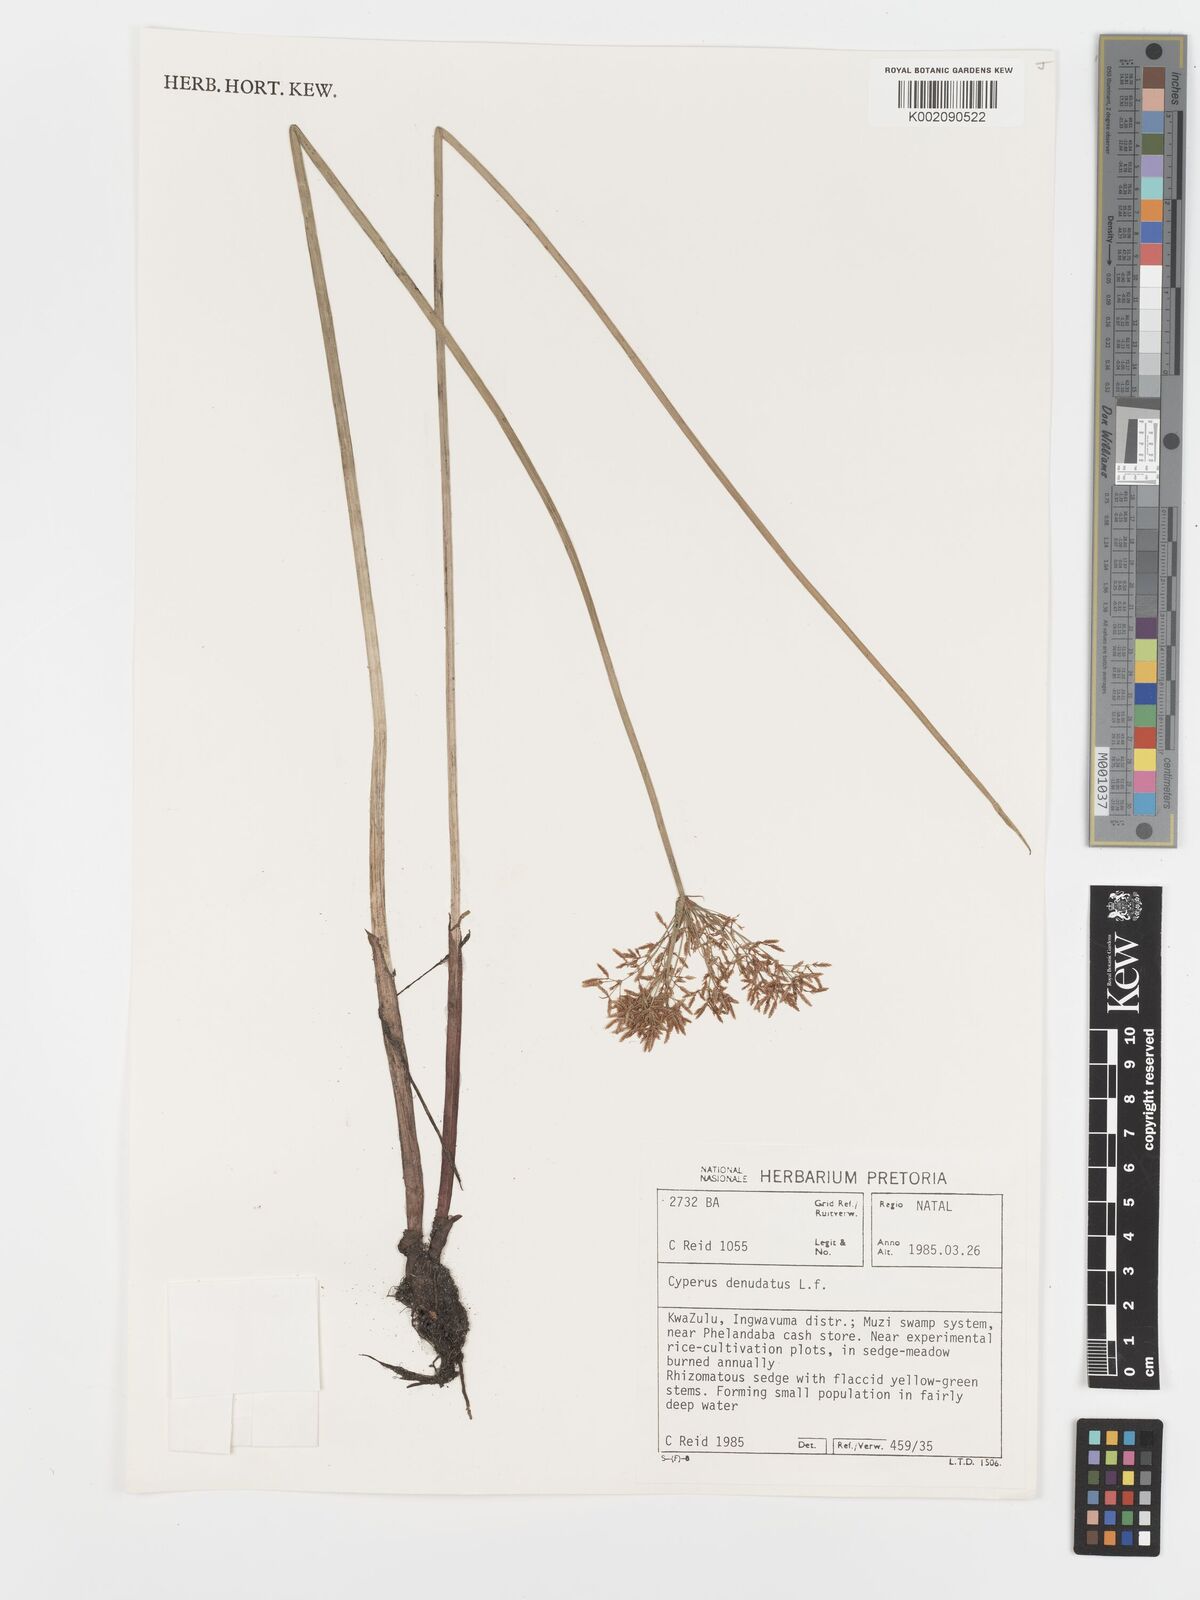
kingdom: Plantae
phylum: Tracheophyta
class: Liliopsida
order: Poales
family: Cyperaceae
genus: Cyperus
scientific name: Cyperus sphaerospermus
